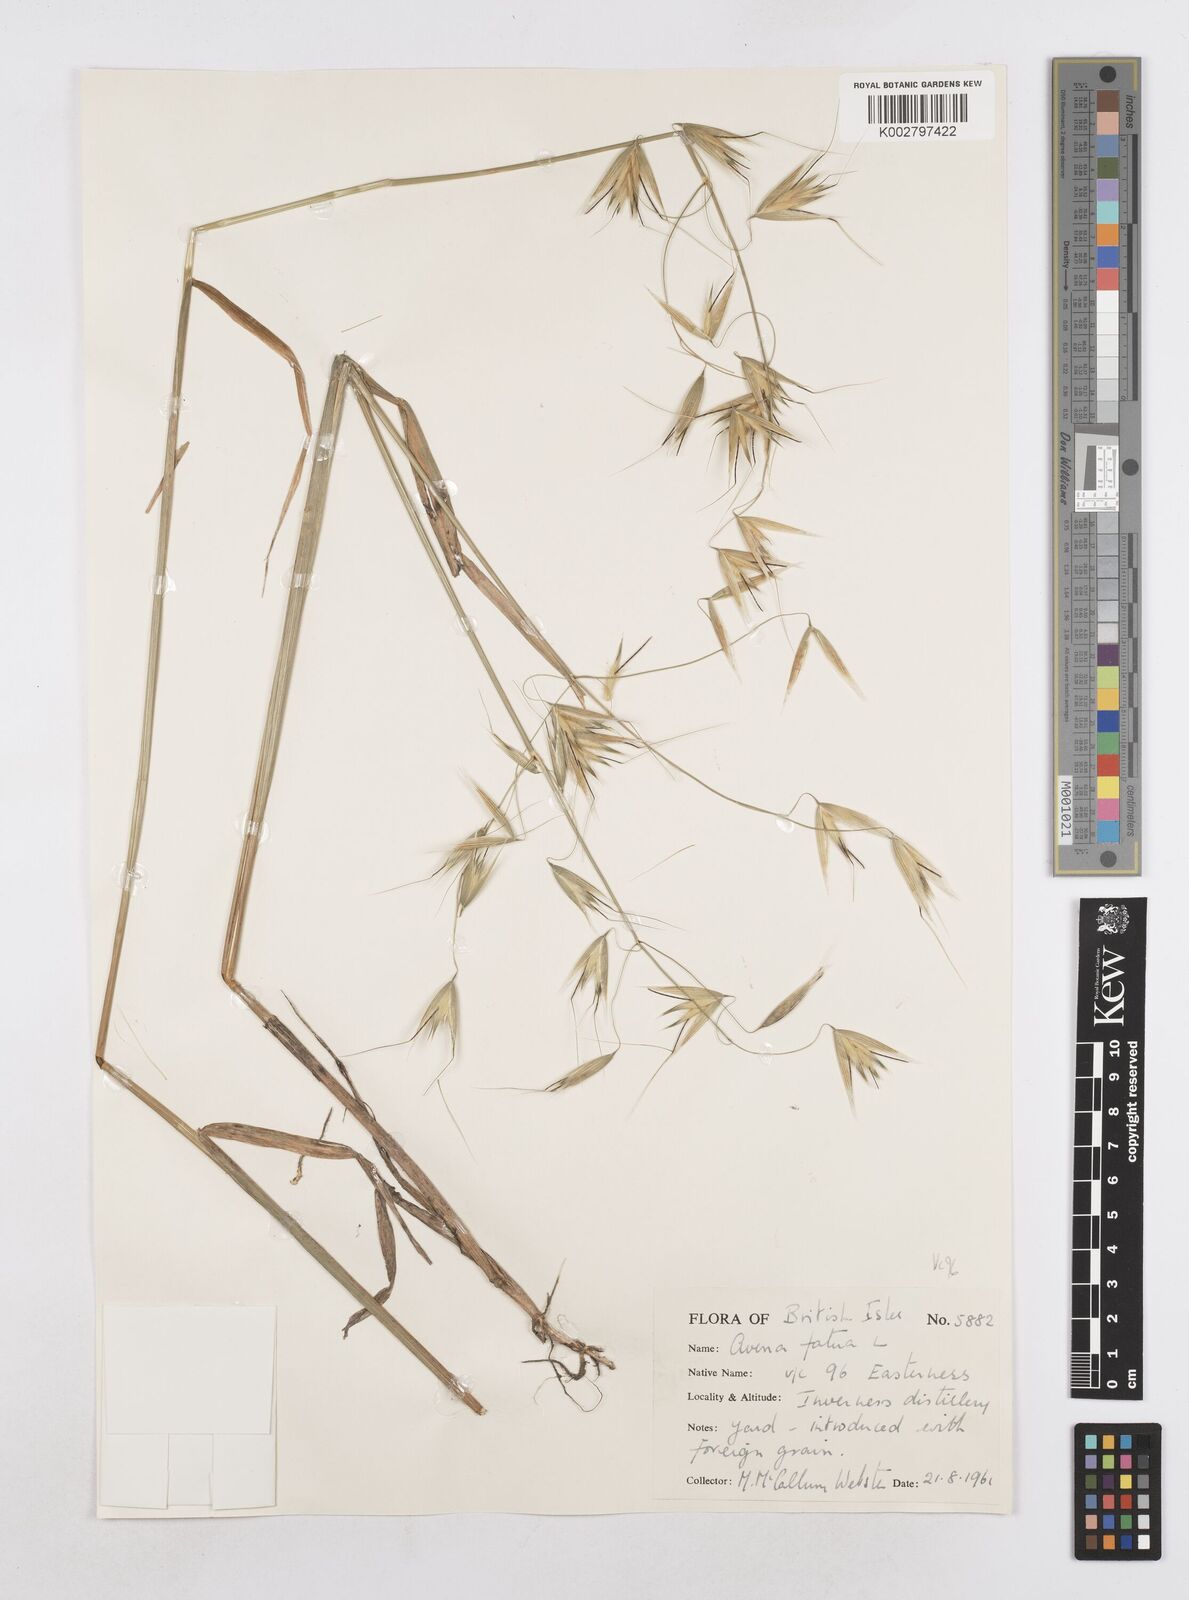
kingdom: Plantae
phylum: Tracheophyta
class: Liliopsida
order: Poales
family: Poaceae
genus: Avena
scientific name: Avena fatua
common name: Wild oat
